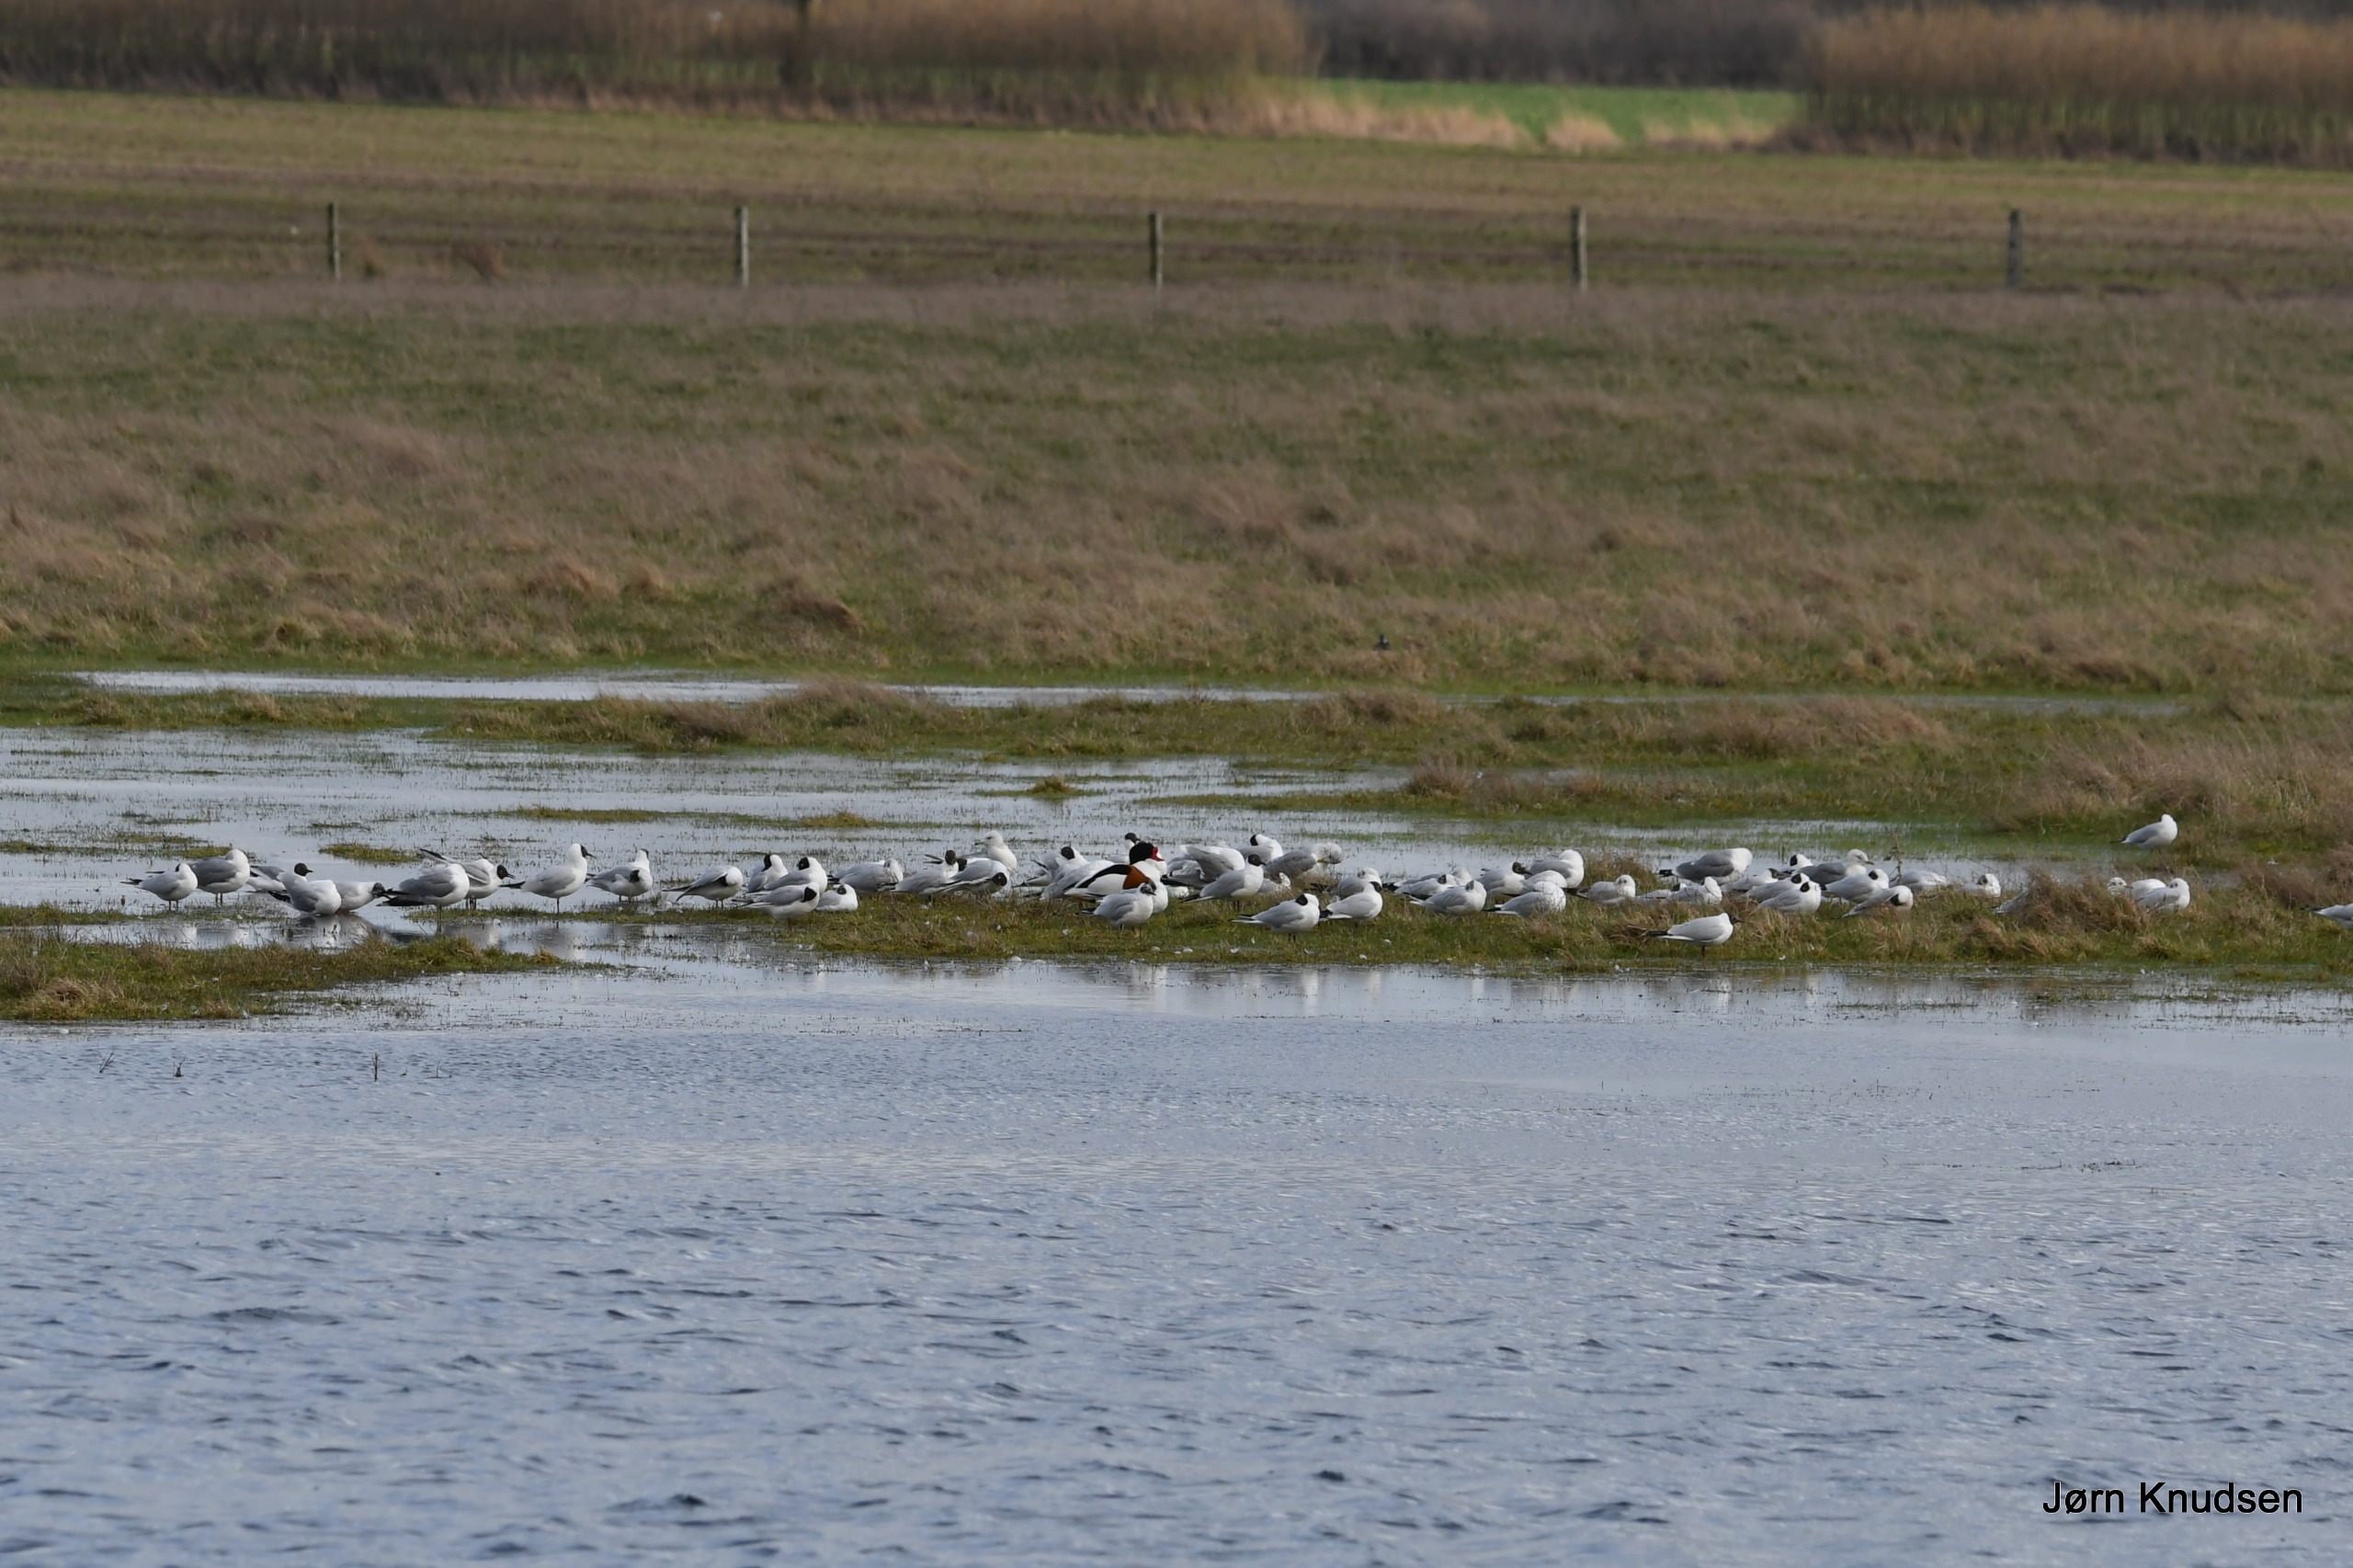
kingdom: Animalia
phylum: Chordata
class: Aves
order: Charadriiformes
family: Laridae
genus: Chroicocephalus
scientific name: Chroicocephalus ridibundus
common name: Hættemåge
